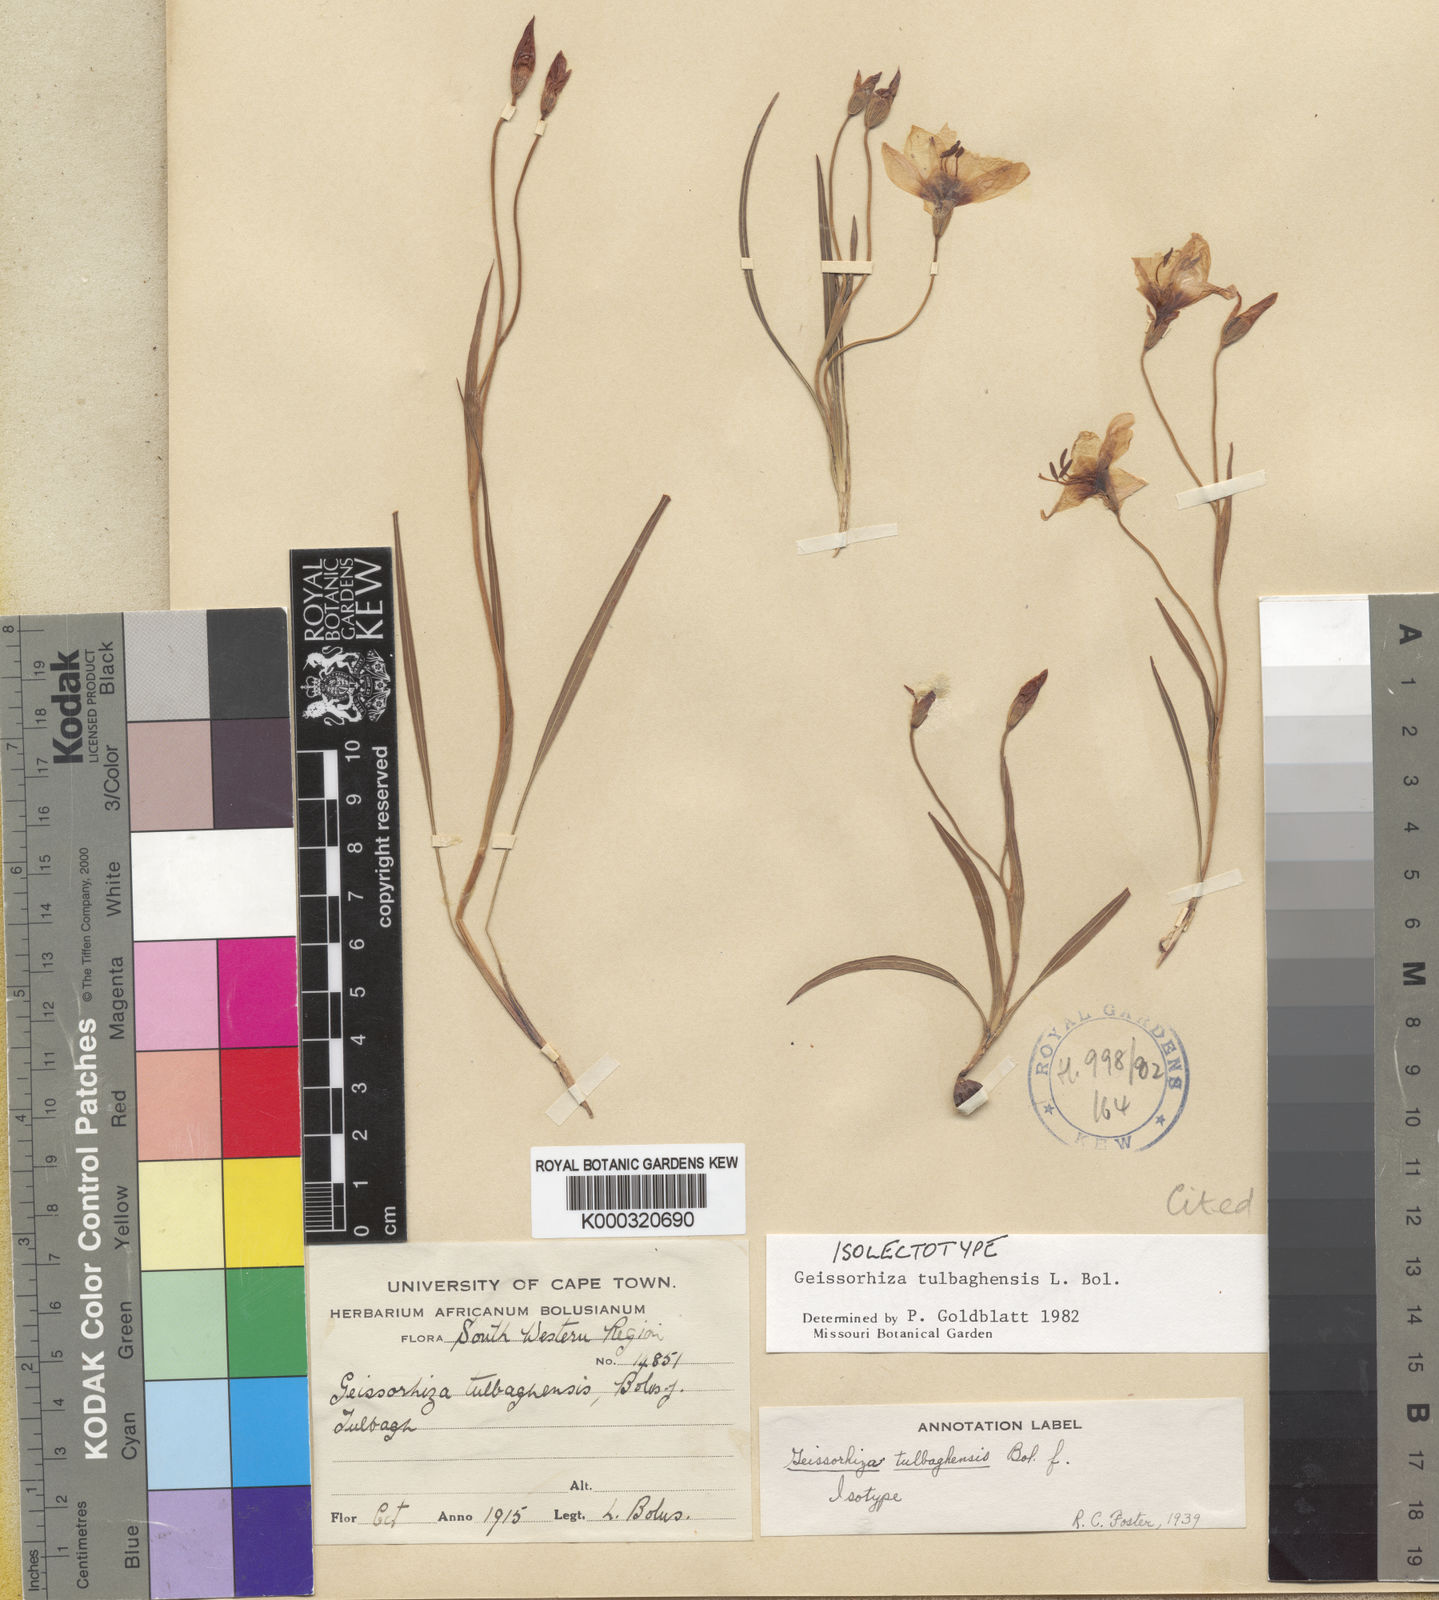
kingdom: Plantae
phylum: Tracheophyta
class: Liliopsida
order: Asparagales
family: Iridaceae
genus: Geissorhiza
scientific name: Geissorhiza tulbaghensis
